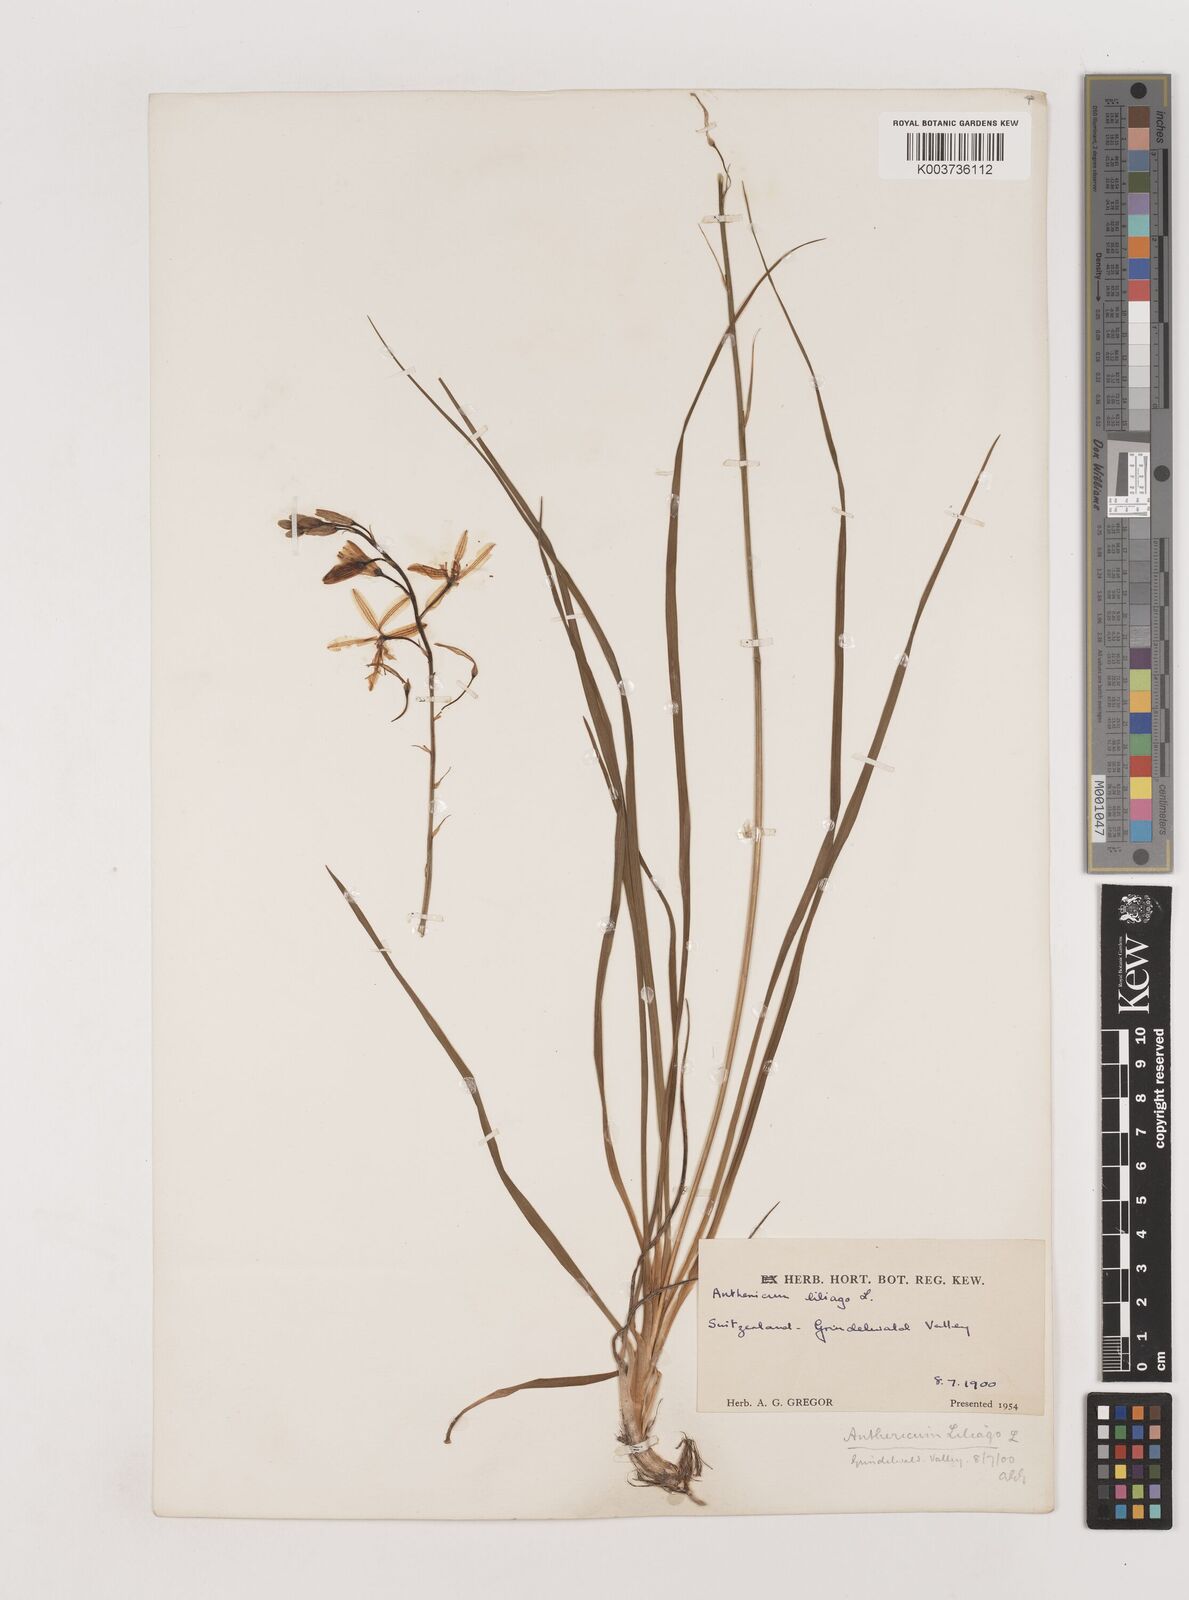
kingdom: Plantae
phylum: Tracheophyta
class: Liliopsida
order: Asparagales
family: Asparagaceae
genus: Anthericum
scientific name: Anthericum liliago
